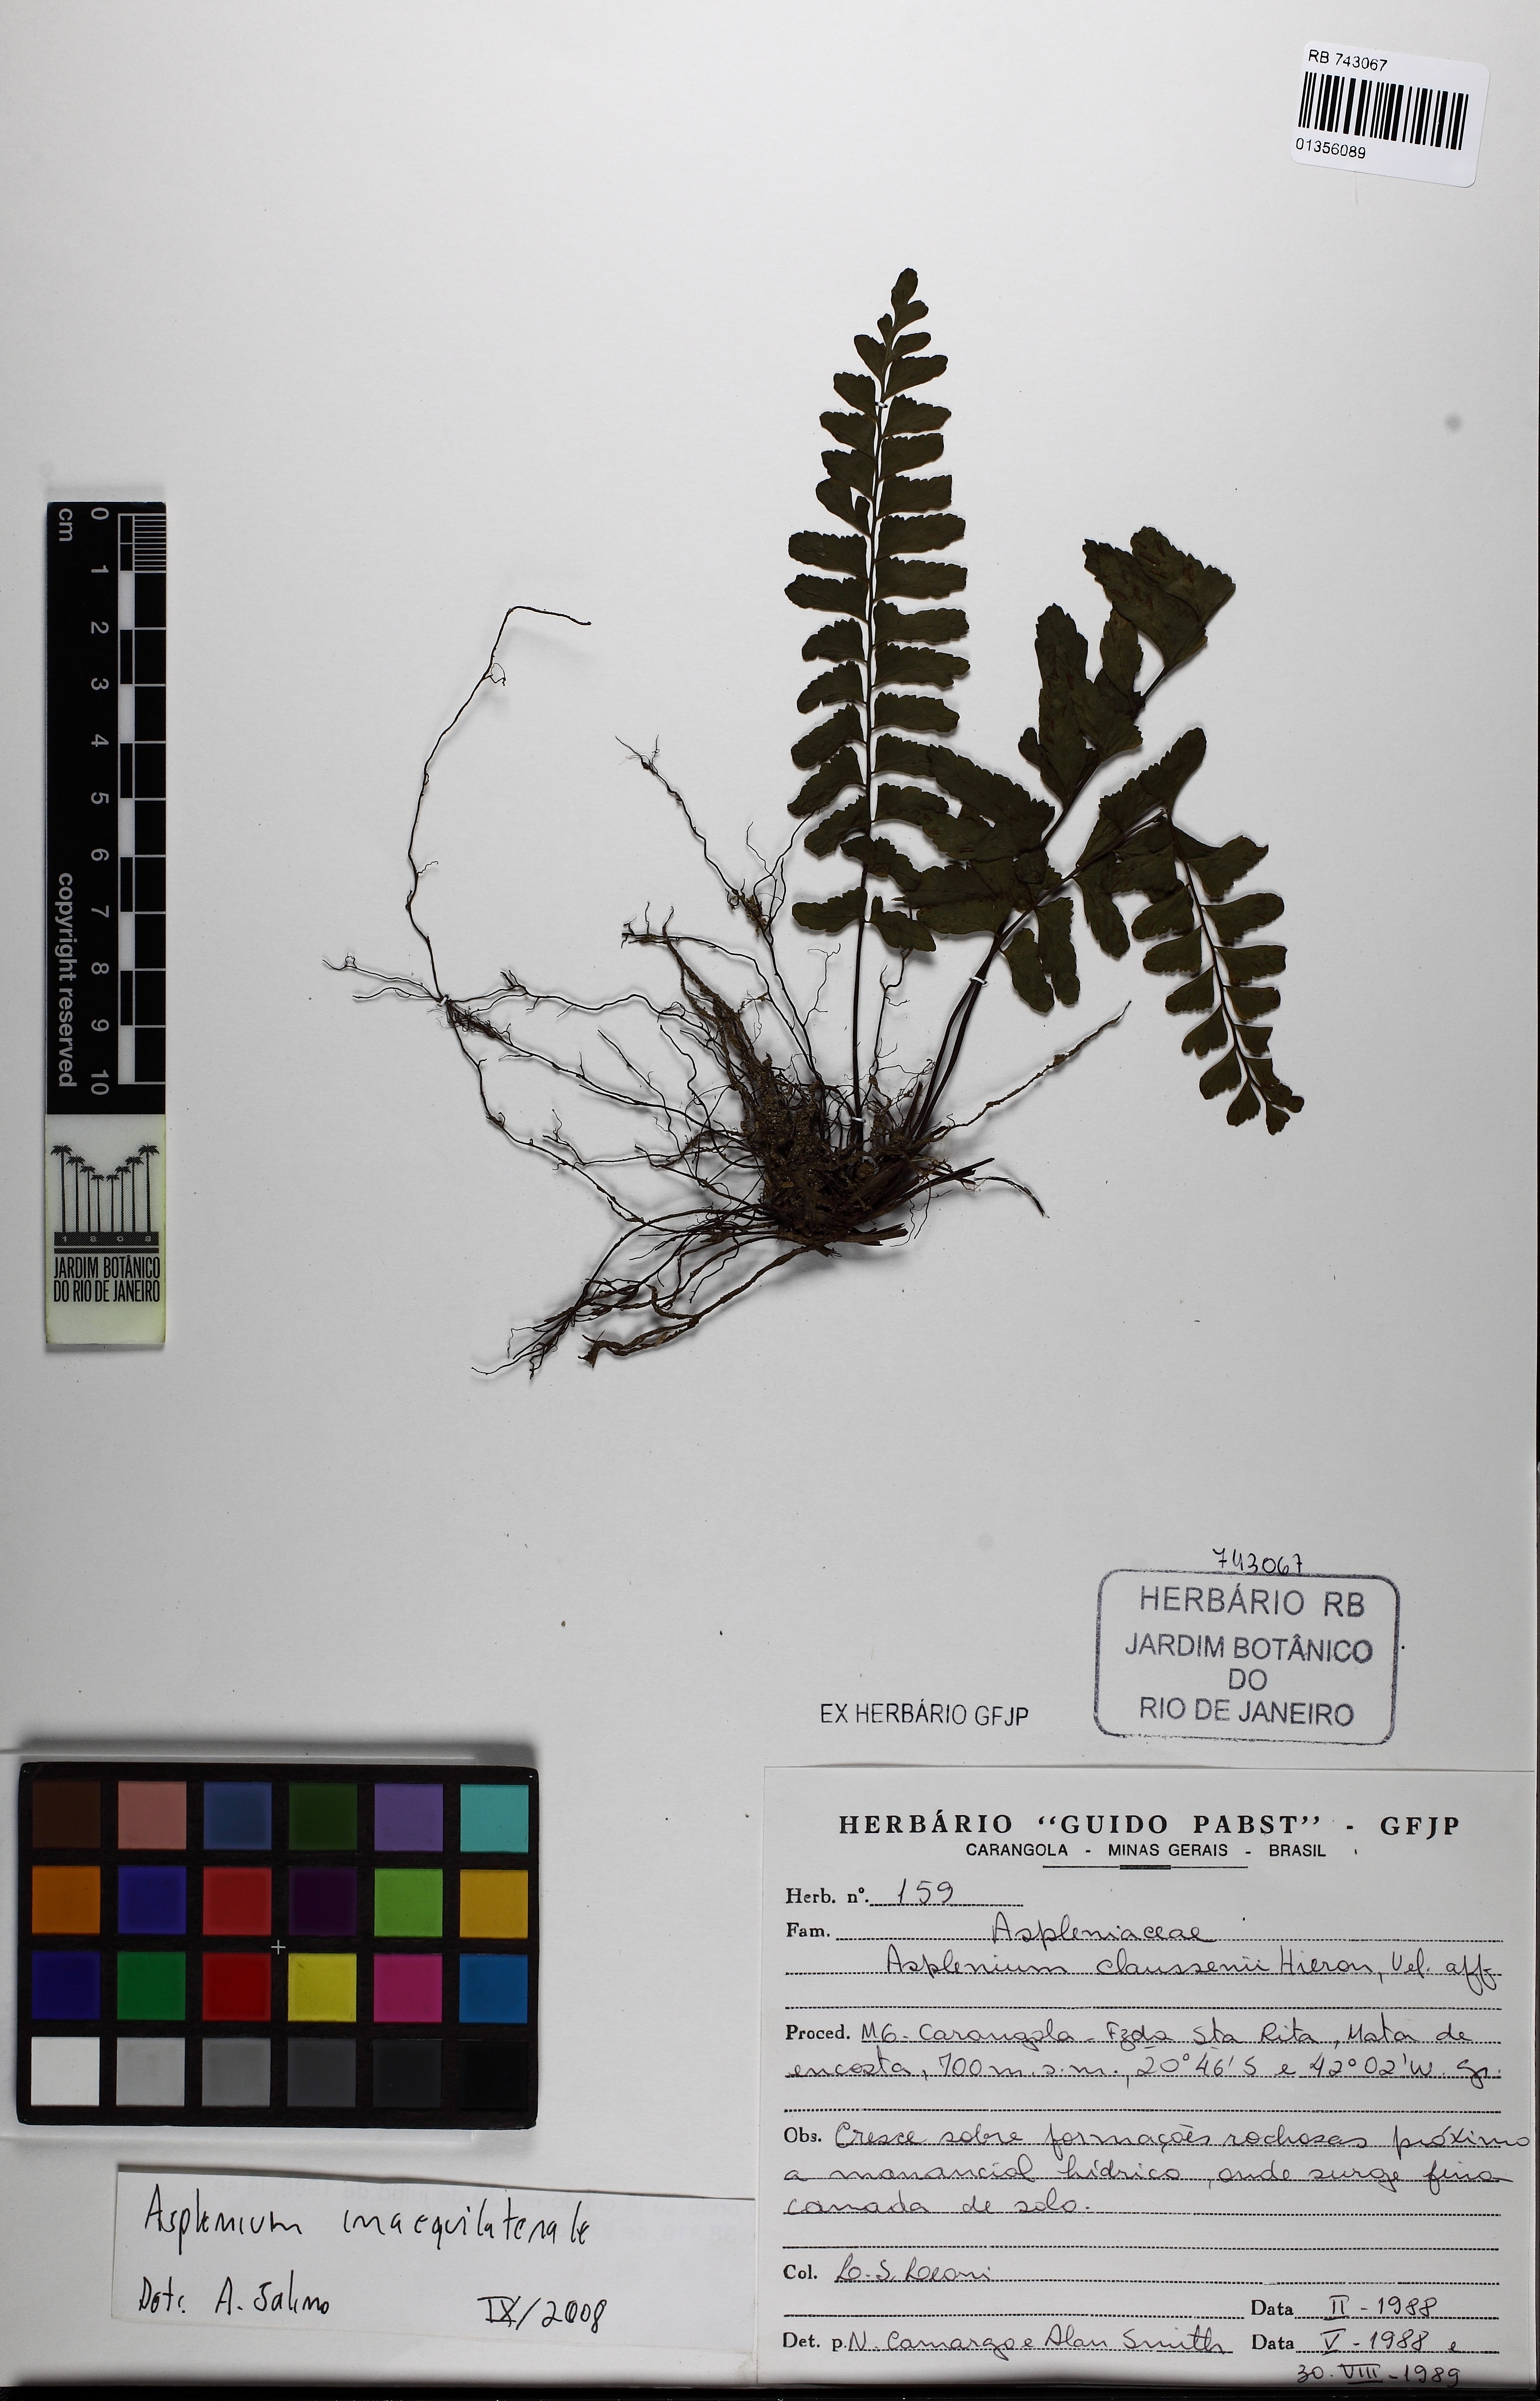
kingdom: Plantae
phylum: Tracheophyta
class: Polypodiopsida
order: Polypodiales
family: Aspleniaceae
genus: Asplenium
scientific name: Asplenium inaequilaterale
